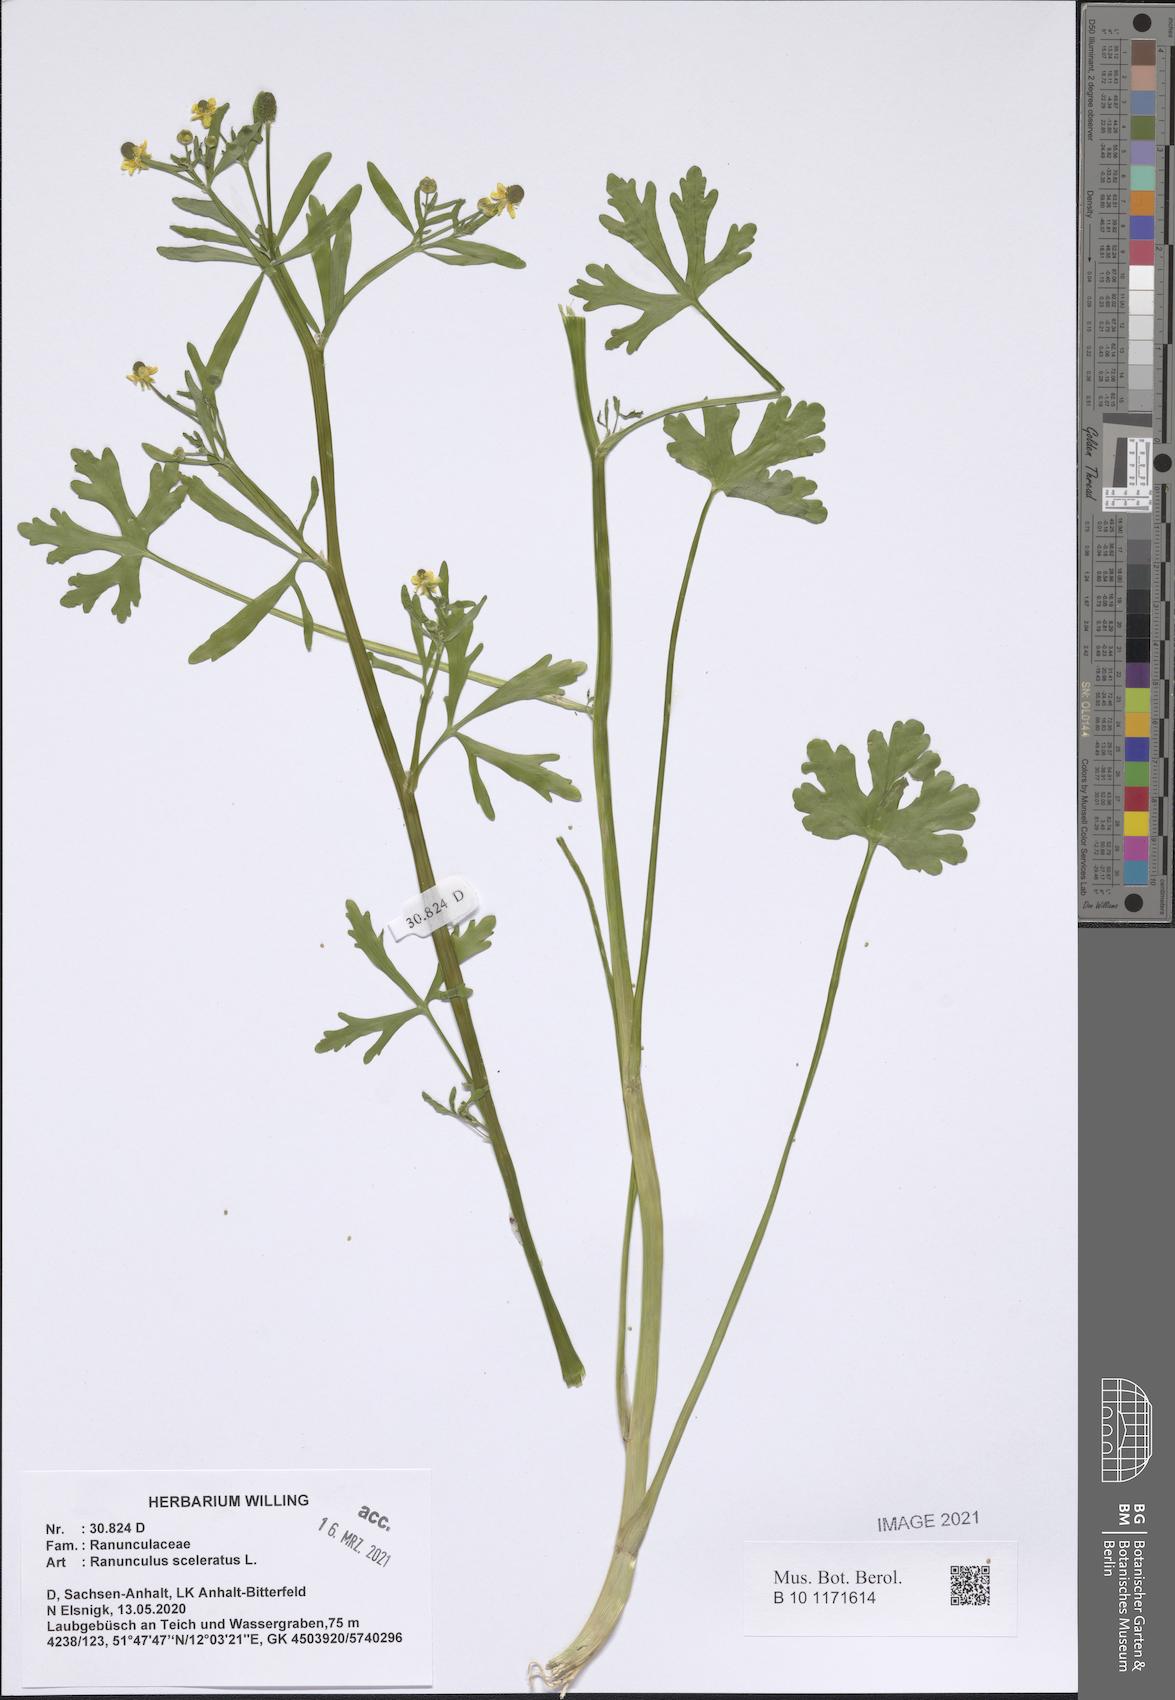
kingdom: Plantae
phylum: Tracheophyta
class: Magnoliopsida
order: Ranunculales
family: Ranunculaceae
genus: Ranunculus
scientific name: Ranunculus sceleratus
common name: Celery-leaved buttercup
